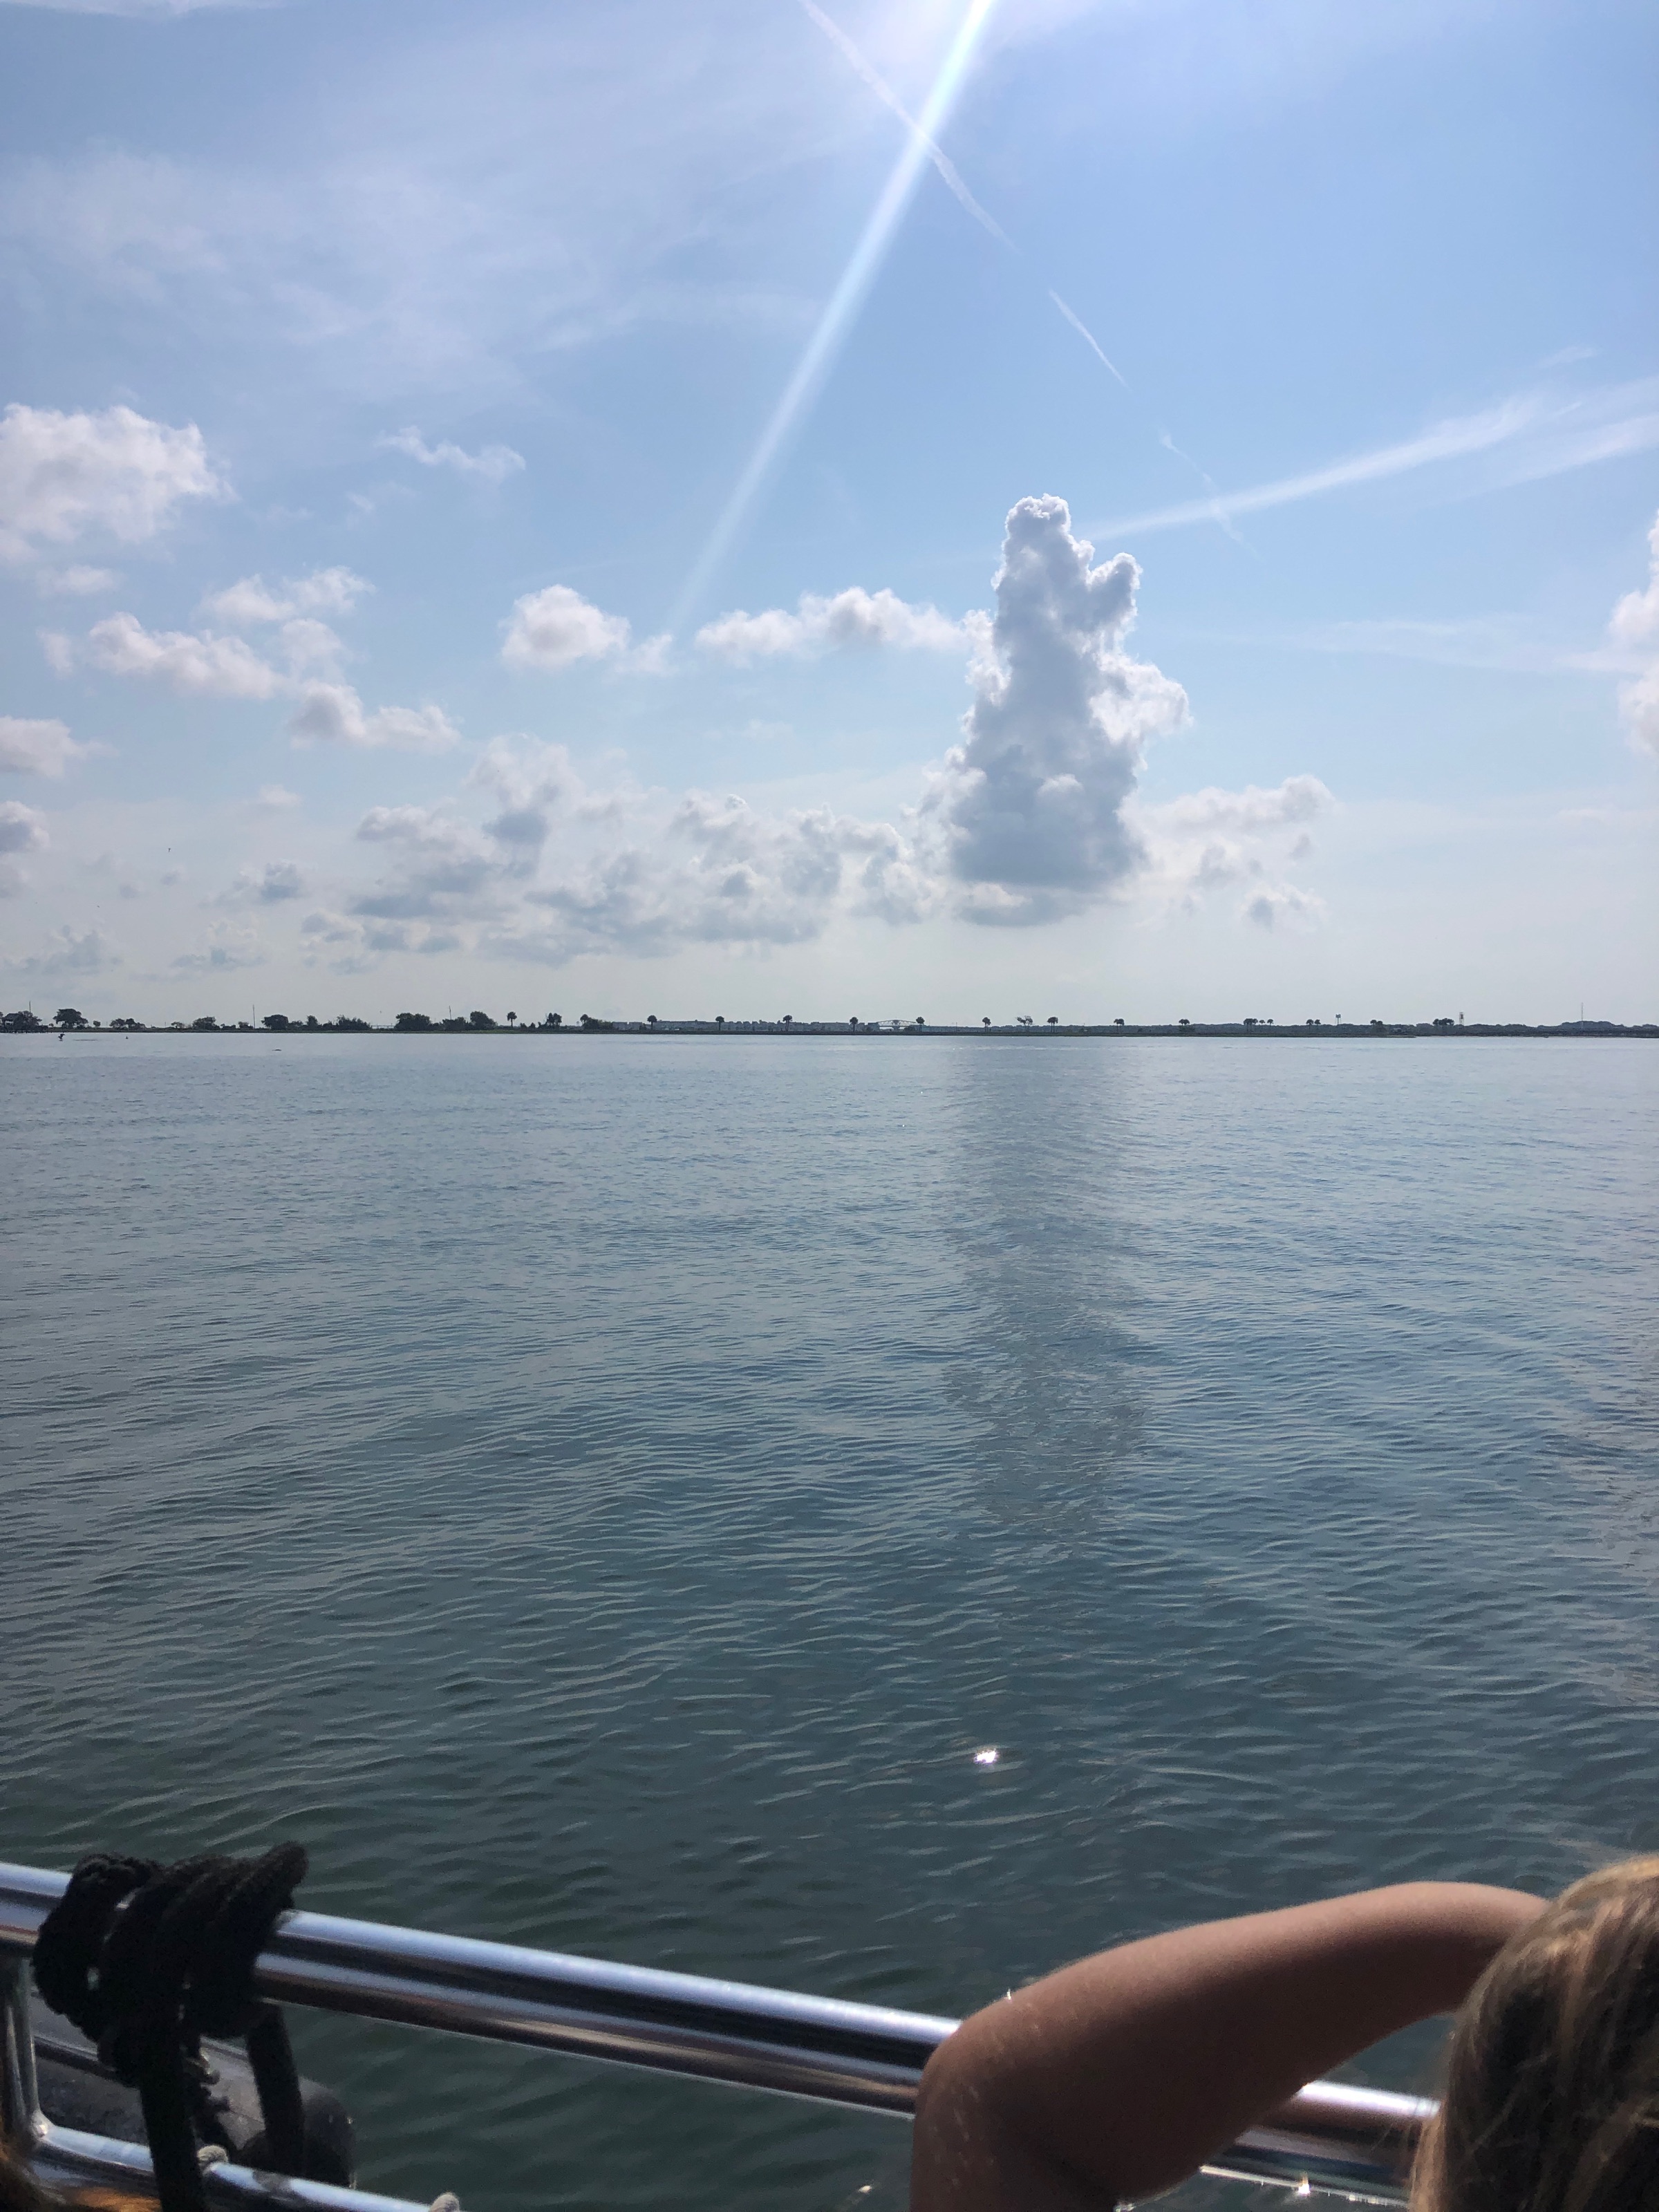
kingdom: Animalia
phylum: Chordata
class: Mammalia
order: Cetacea
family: Delphinidae
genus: Tursiops
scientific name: Tursiops truncatus
